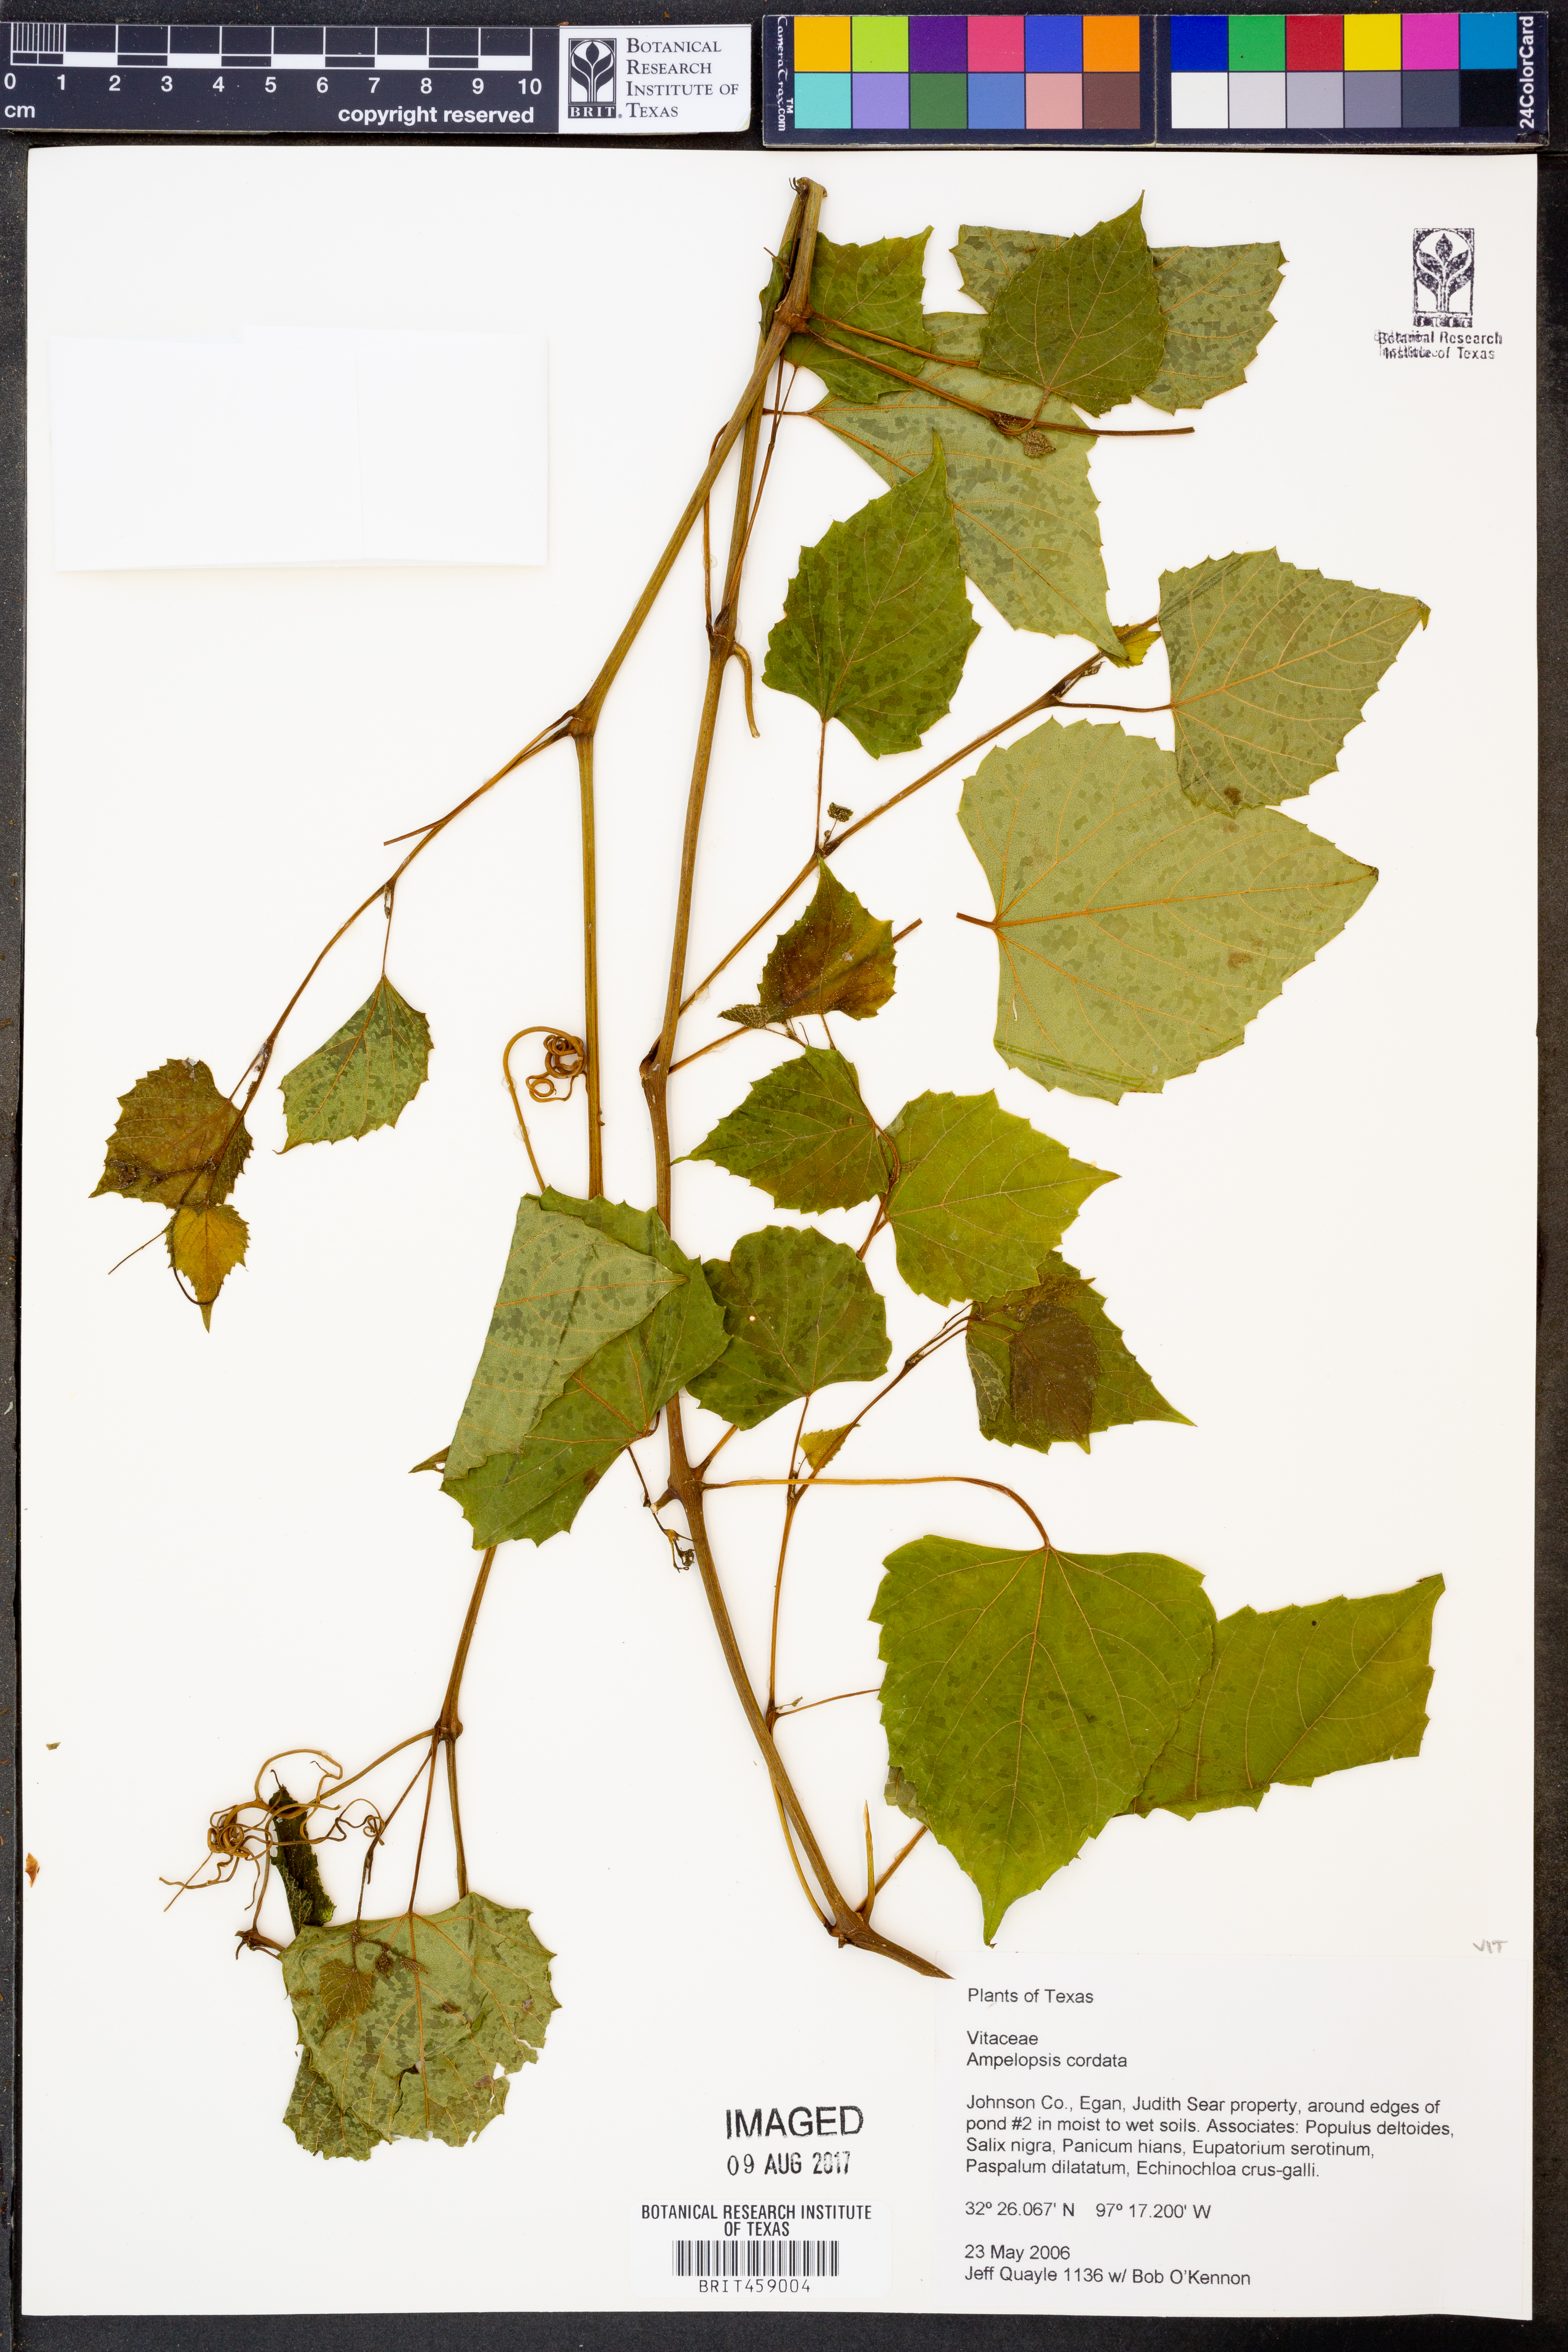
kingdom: Plantae
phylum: Tracheophyta
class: Magnoliopsida
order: Vitales
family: Vitaceae
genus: Ampelopsis
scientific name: Ampelopsis cordata
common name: Heart-leaf ampelopsis
